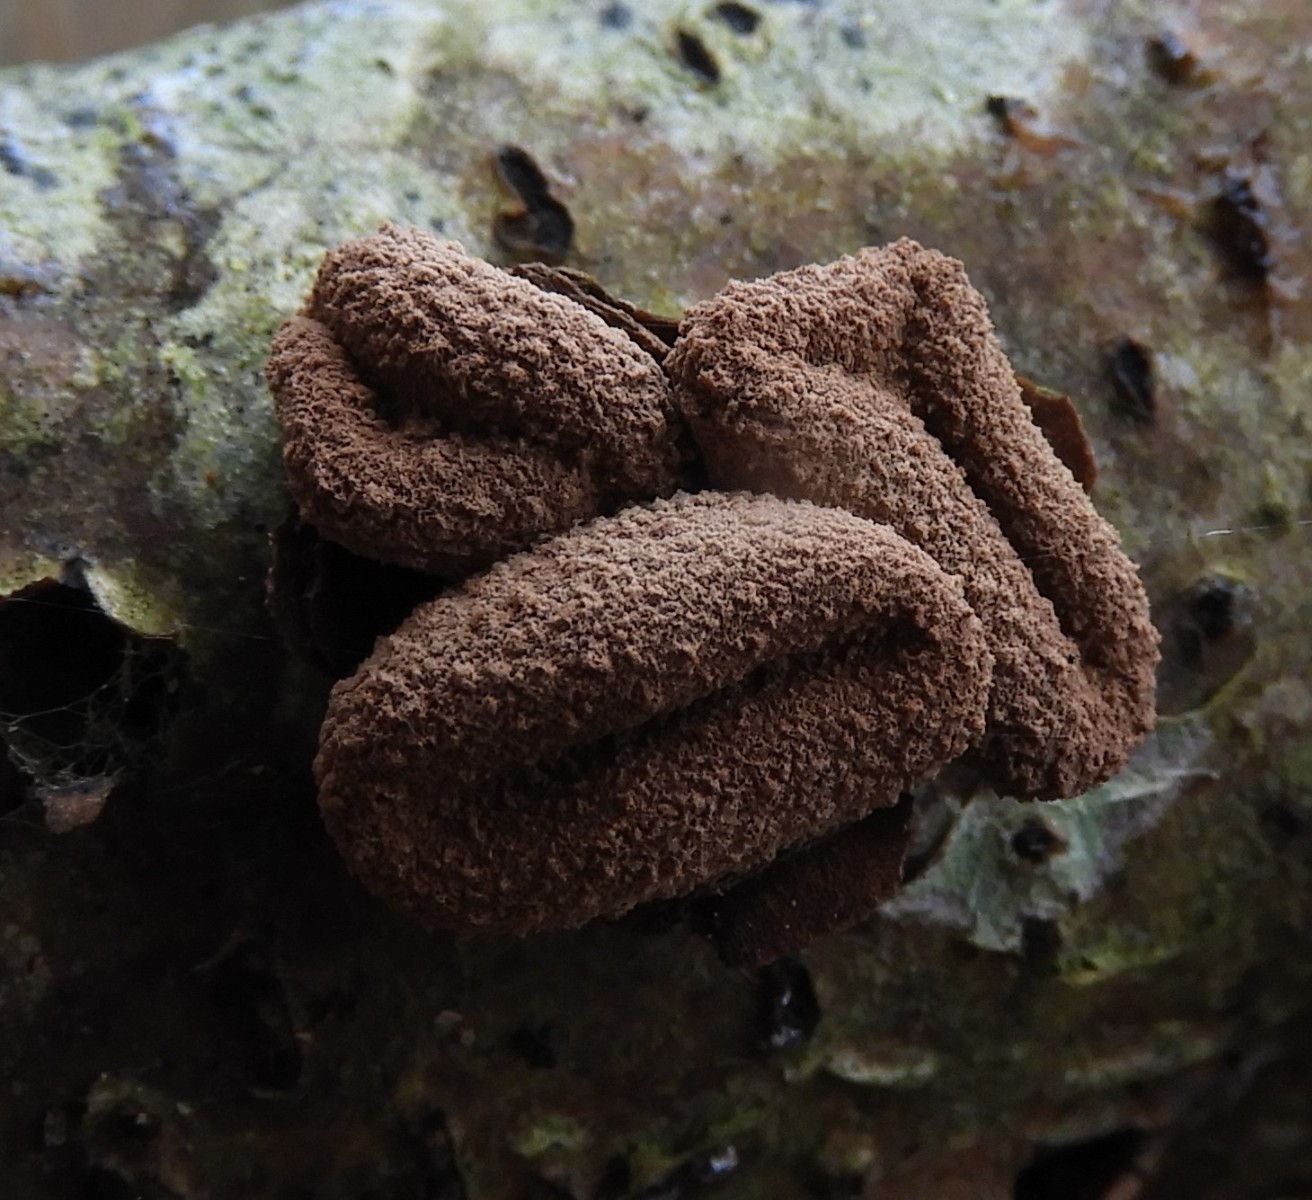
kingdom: Fungi
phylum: Ascomycota
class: Leotiomycetes
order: Helotiales
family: Cenangiaceae
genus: Encoelia
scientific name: Encoelia furfuracea
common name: hassel-læderskive
